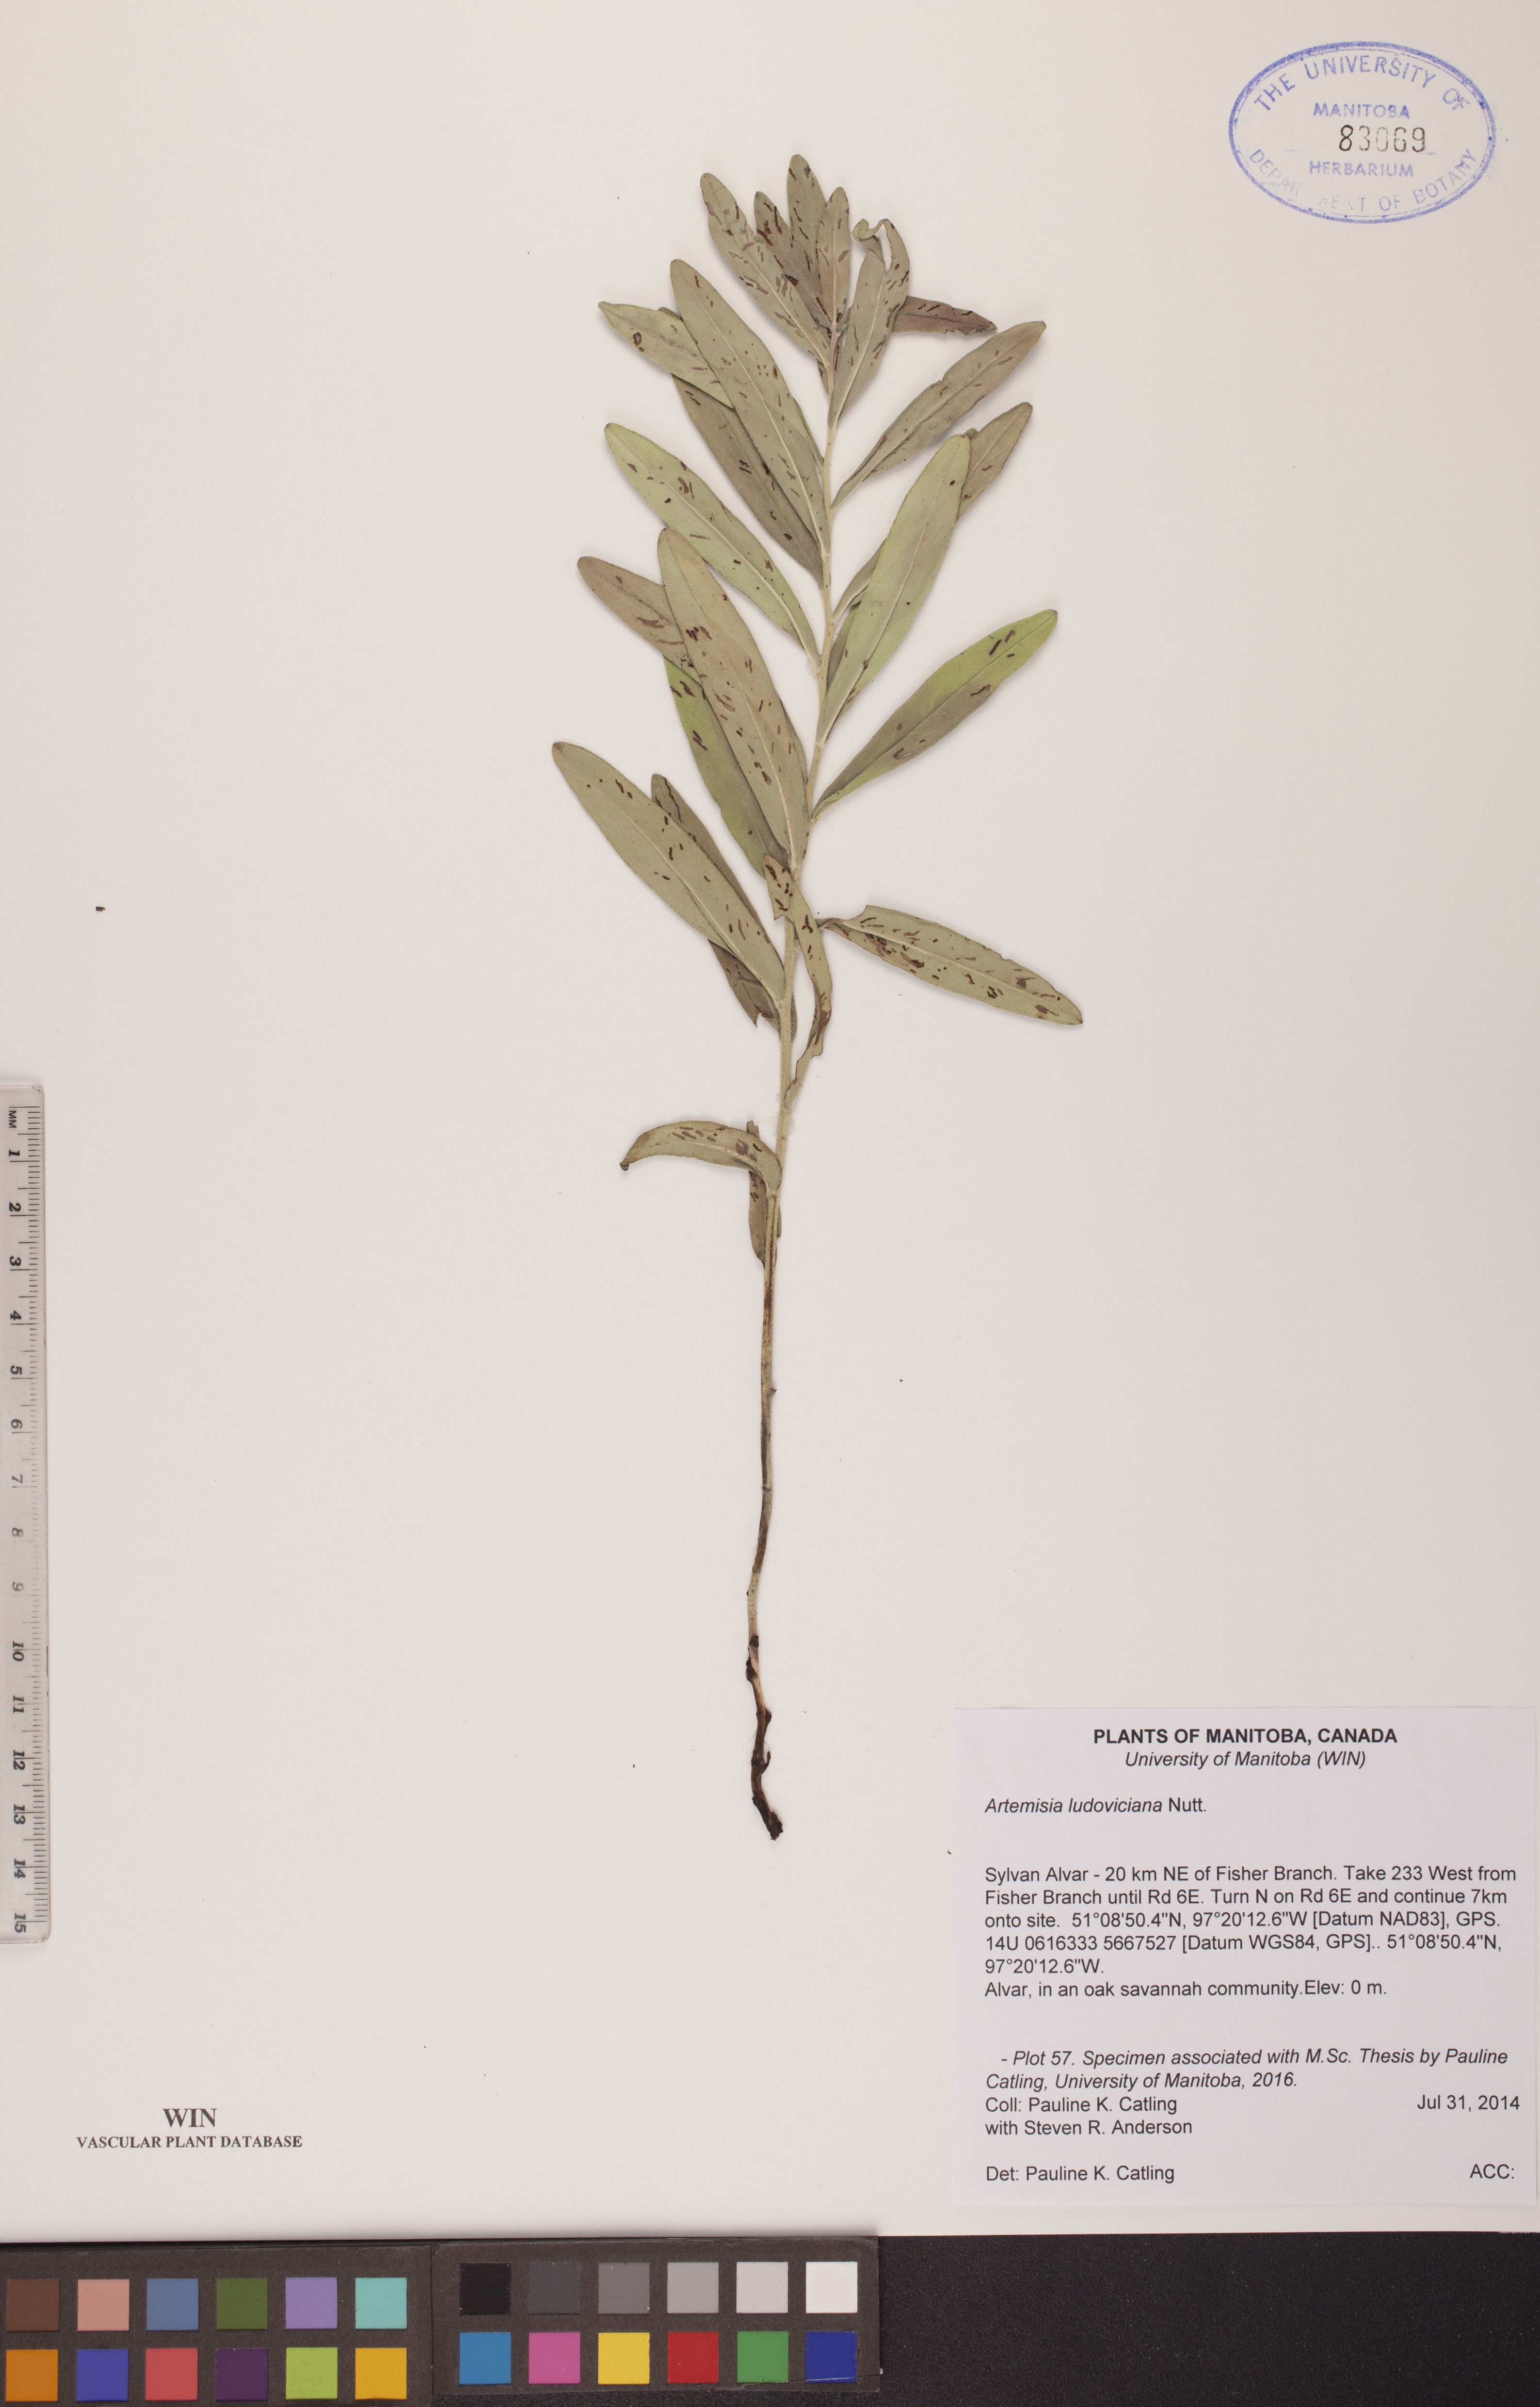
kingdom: Plantae
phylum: Tracheophyta
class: Magnoliopsida
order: Asterales
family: Asteraceae
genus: Artemisia
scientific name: Artemisia ludoviciana
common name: Western mugwort
